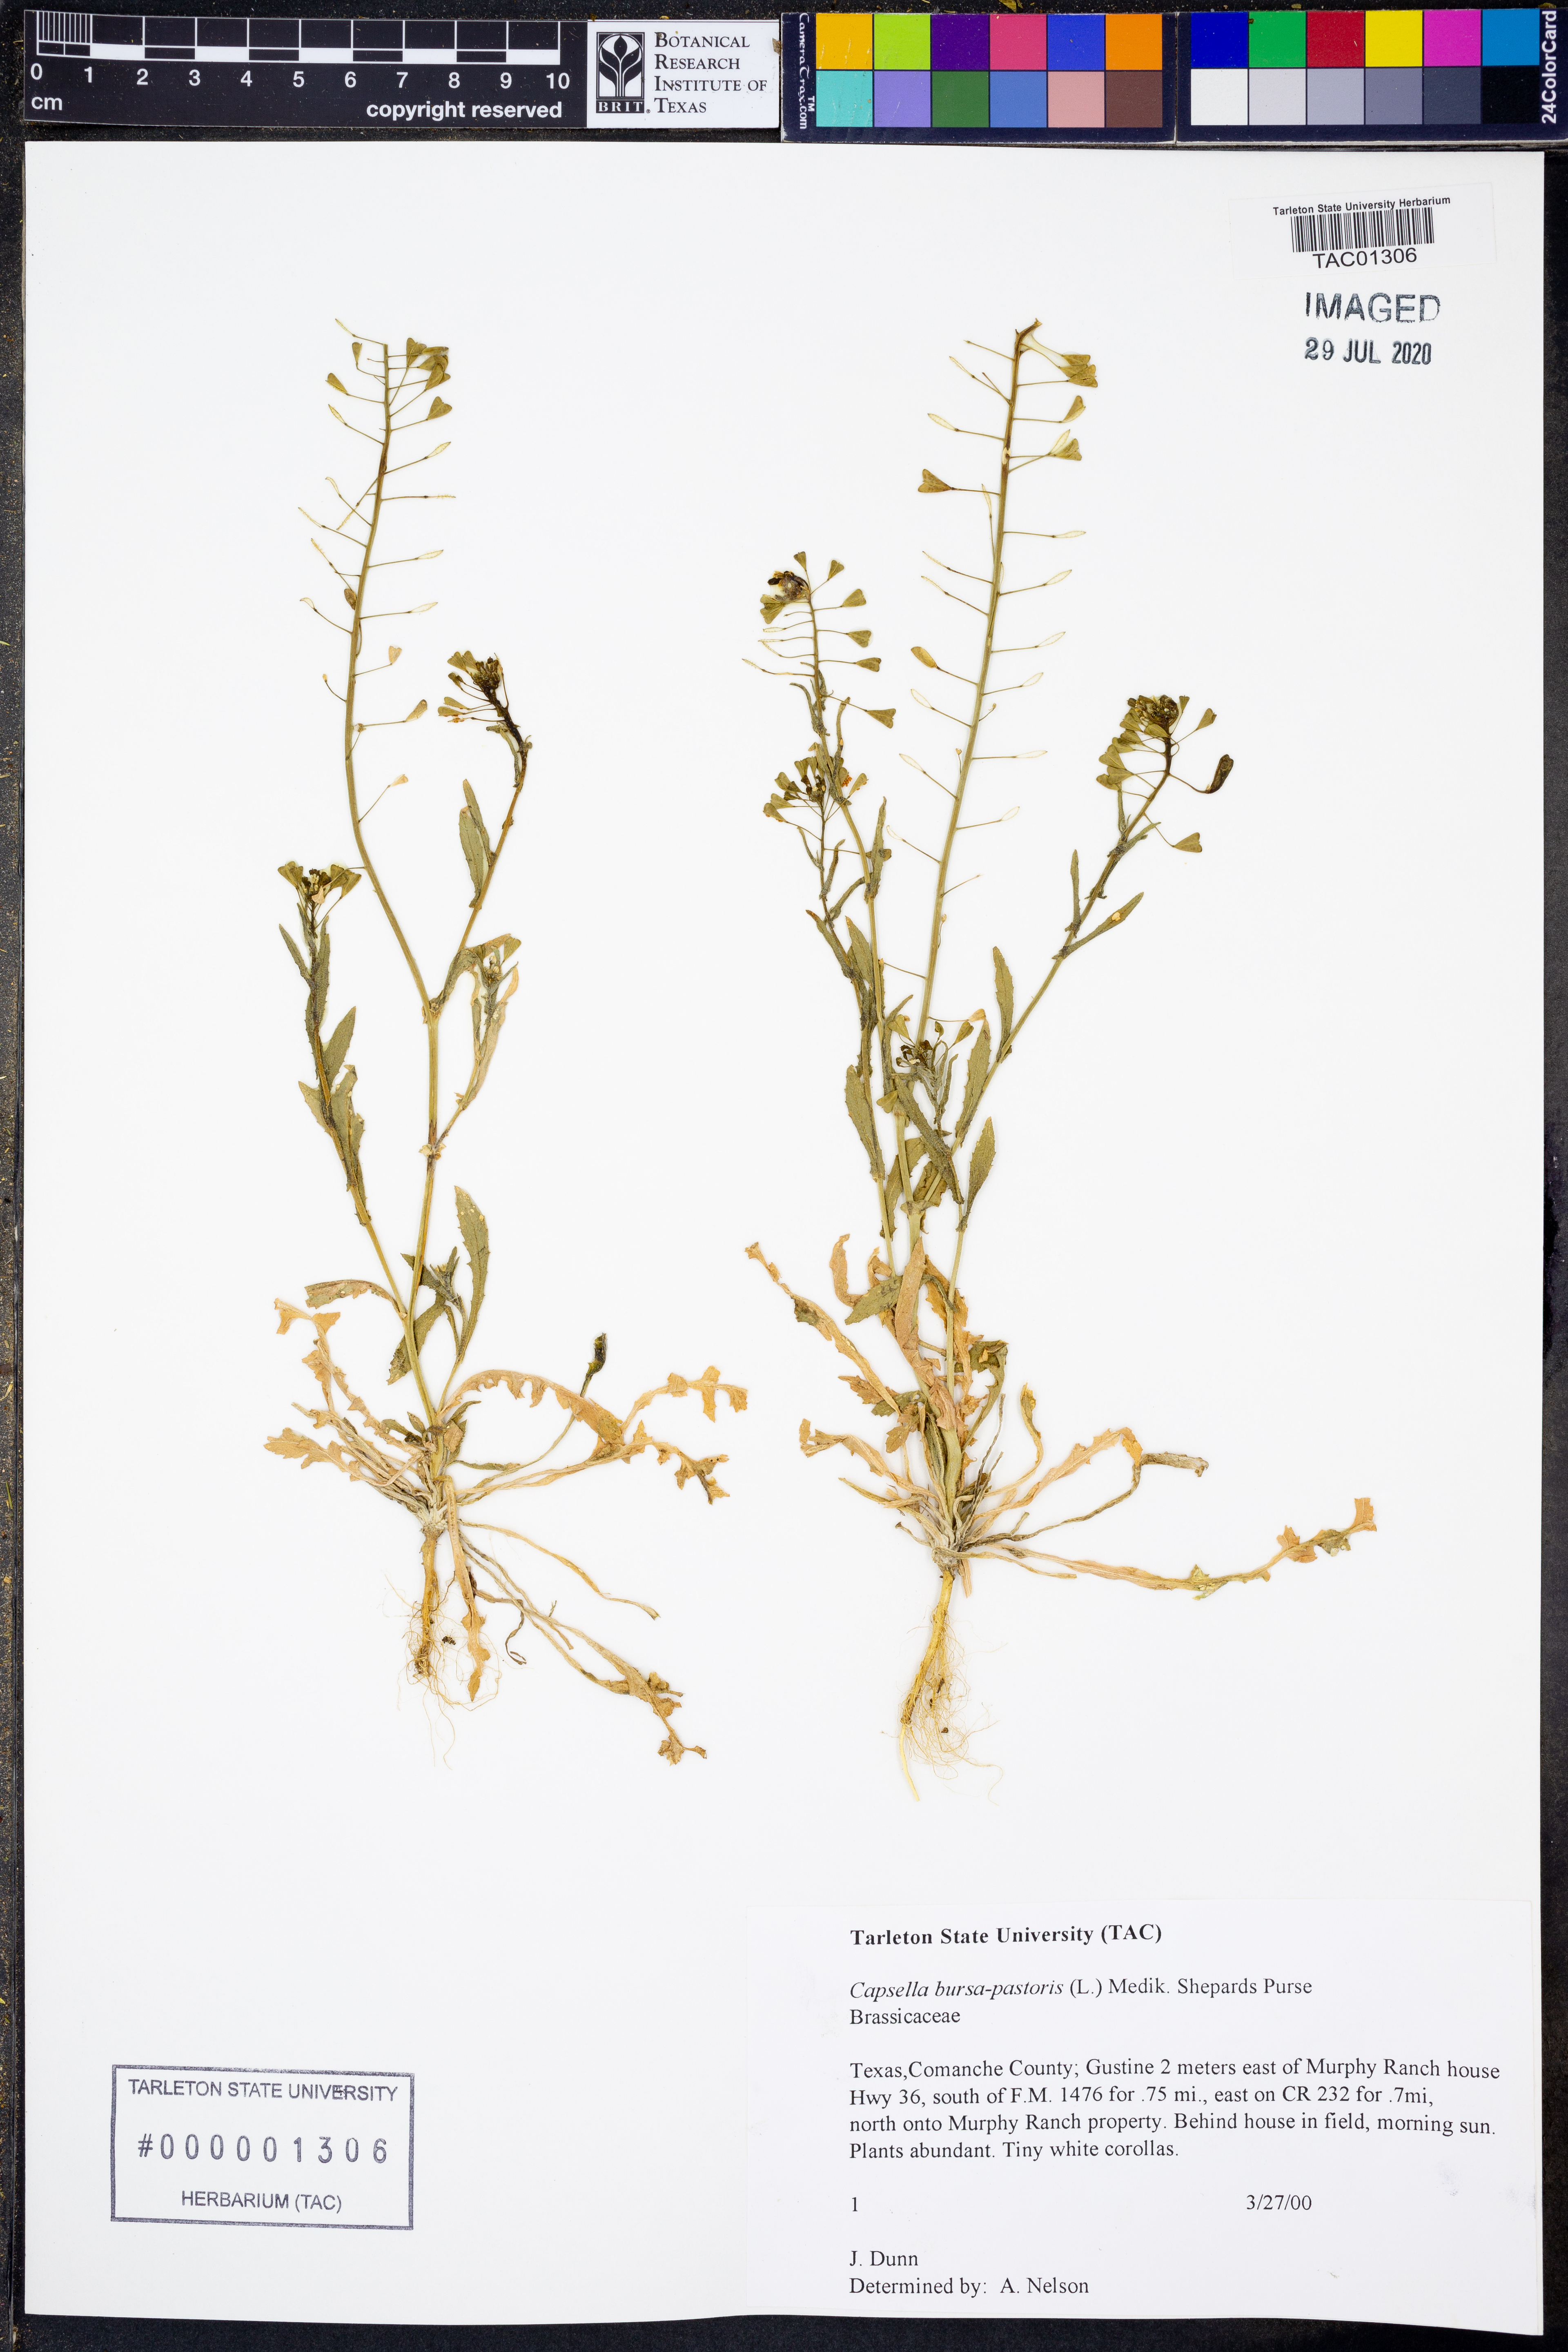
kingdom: Plantae
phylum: Tracheophyta
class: Magnoliopsida
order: Brassicales
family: Brassicaceae
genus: Capsella
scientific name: Capsella bursa-pastoris
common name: Shepherd's purse
